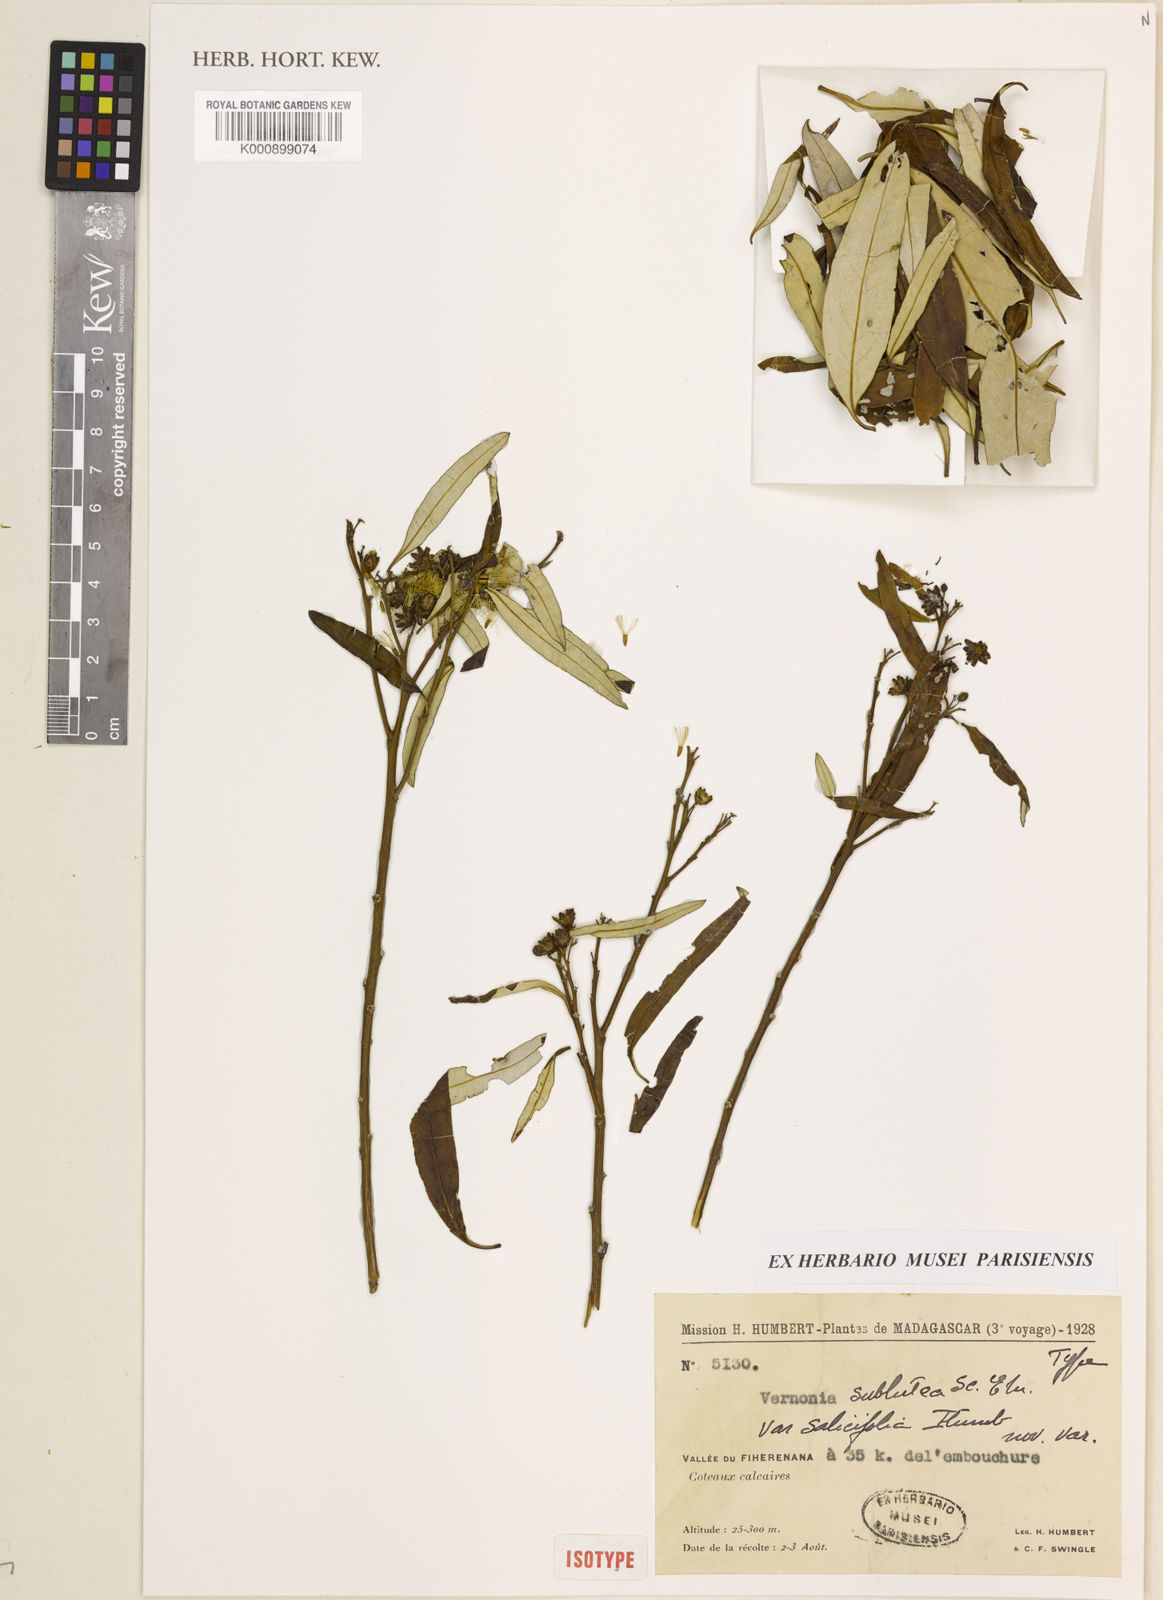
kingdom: Plantae
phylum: Tracheophyta
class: Magnoliopsida
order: Asterales
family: Asteraceae
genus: Distephanus
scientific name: Distephanus subluteus
